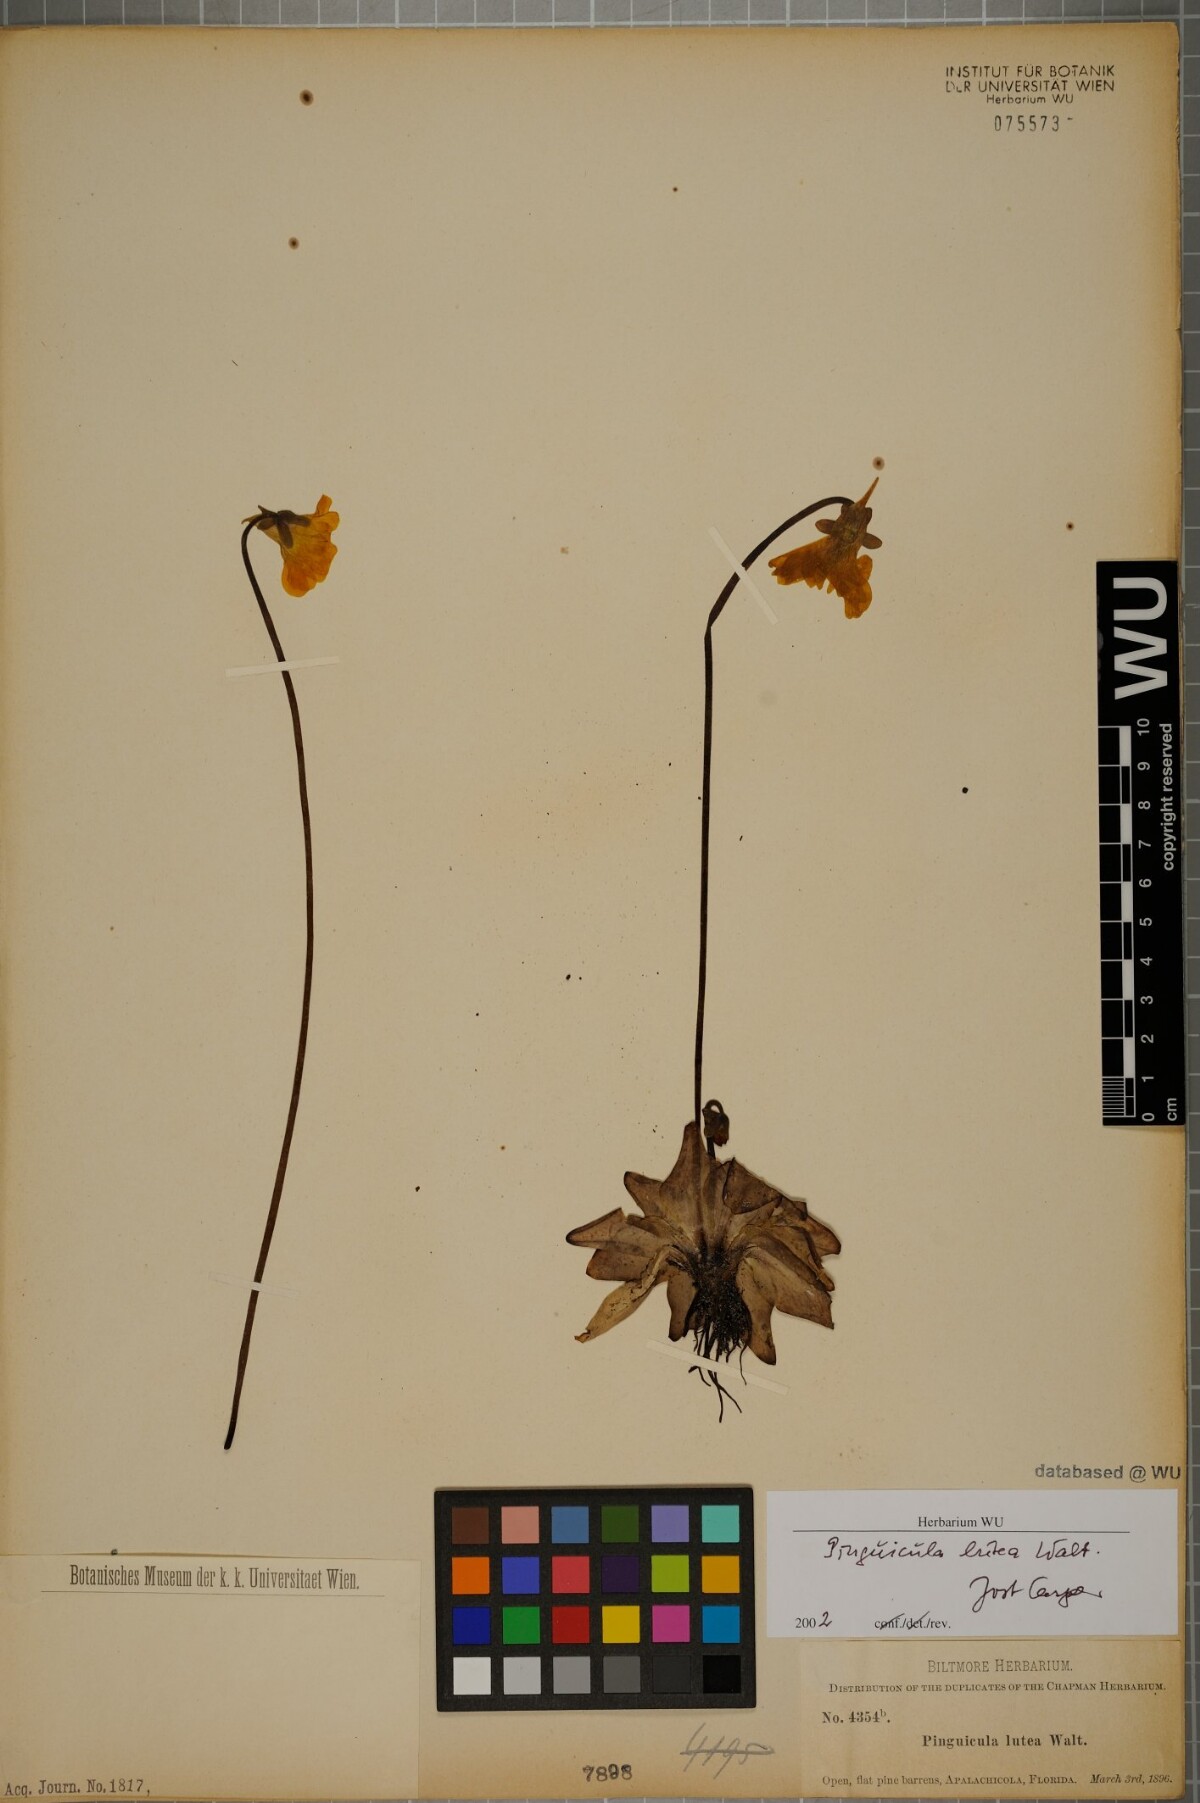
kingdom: Plantae
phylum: Tracheophyta
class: Magnoliopsida
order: Lamiales
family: Lentibulariaceae
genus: Pinguicula
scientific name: Pinguicula lutea
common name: Yellow butterwort
